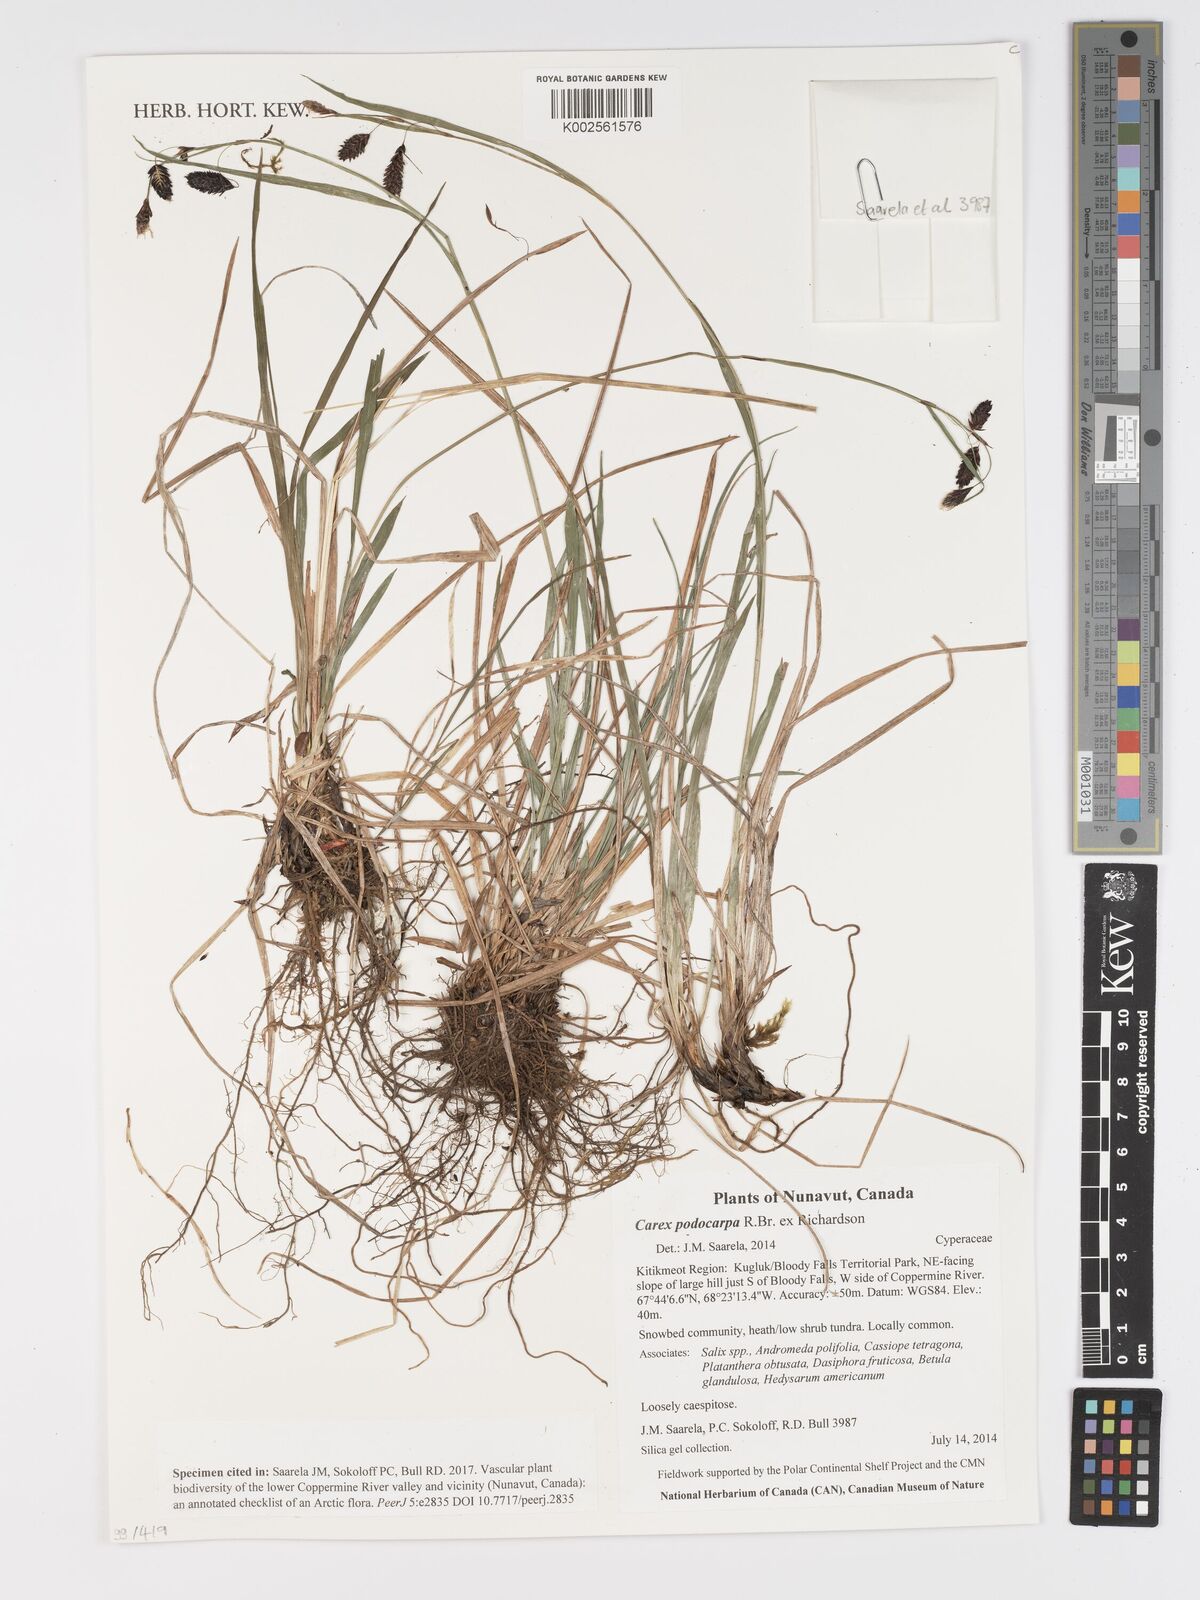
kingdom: Plantae
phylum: Tracheophyta
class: Liliopsida
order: Poales
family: Cyperaceae
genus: Carex
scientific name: Carex podocarpa
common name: Alpine sedge
